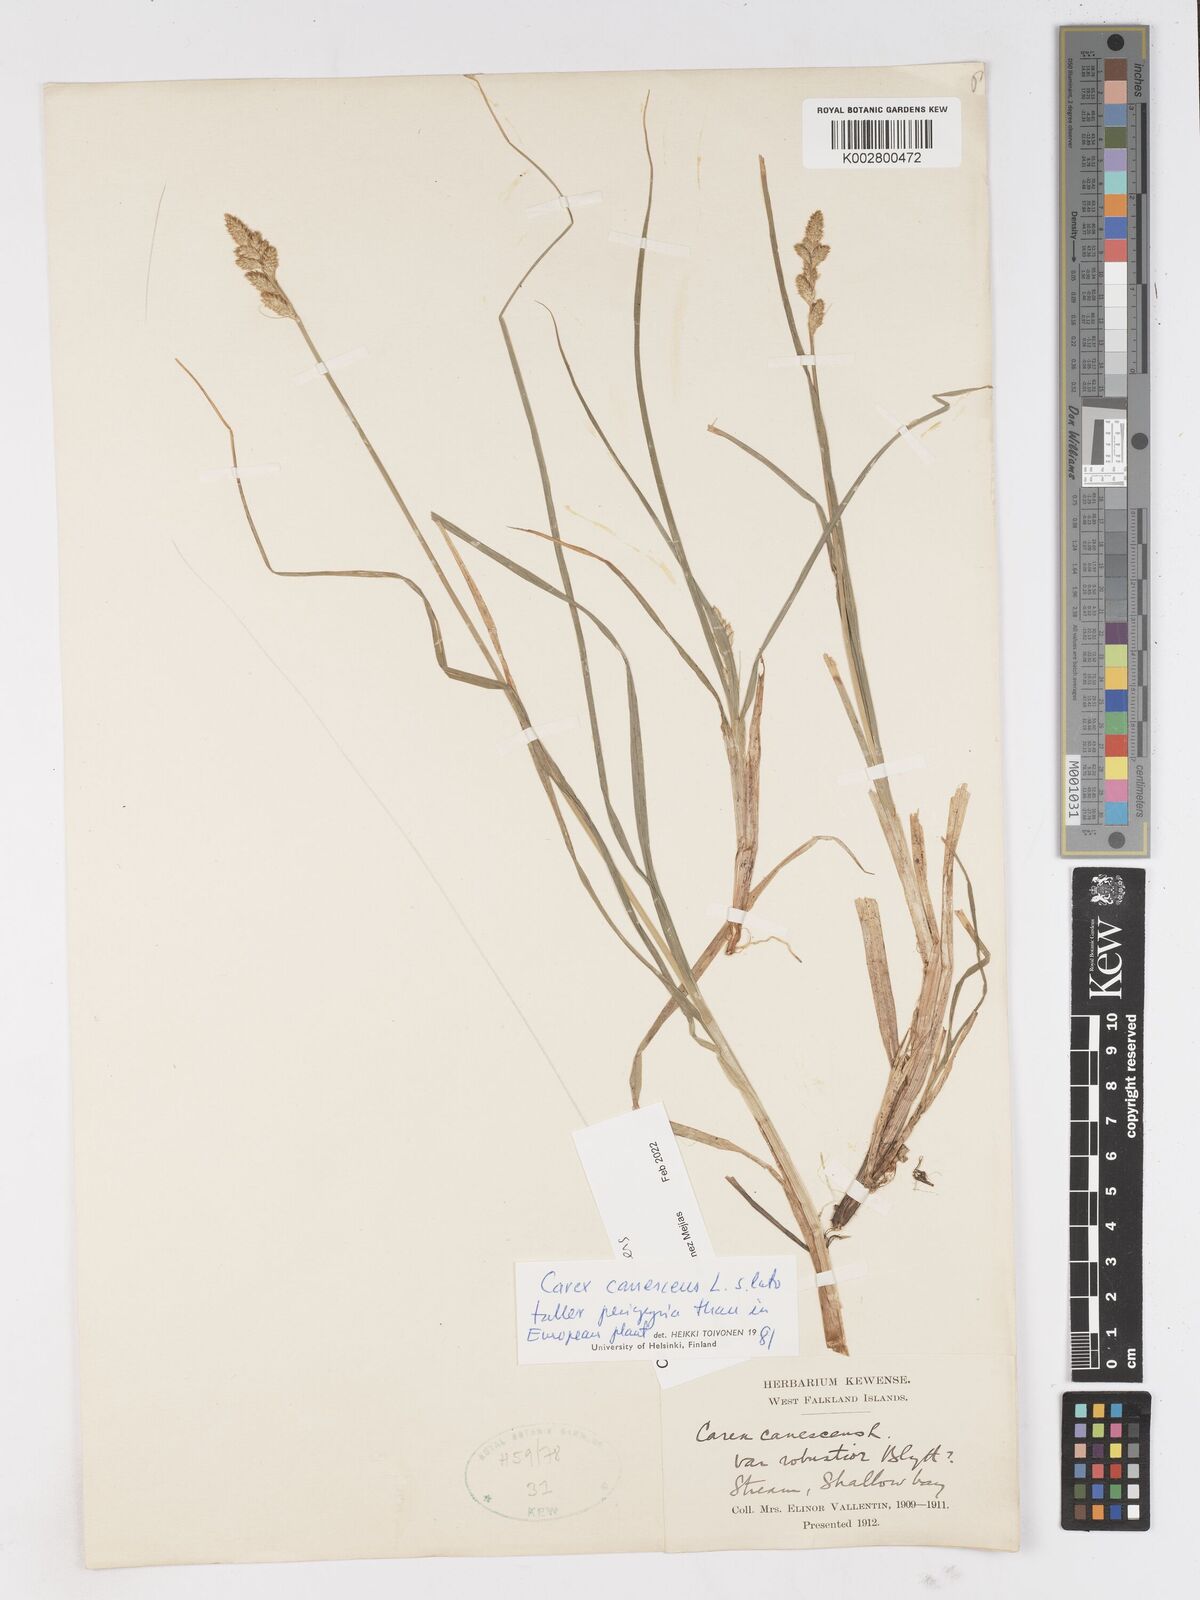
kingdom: Plantae
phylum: Tracheophyta
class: Liliopsida
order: Poales
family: Cyperaceae
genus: Carex
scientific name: Carex curta
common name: White sedge
